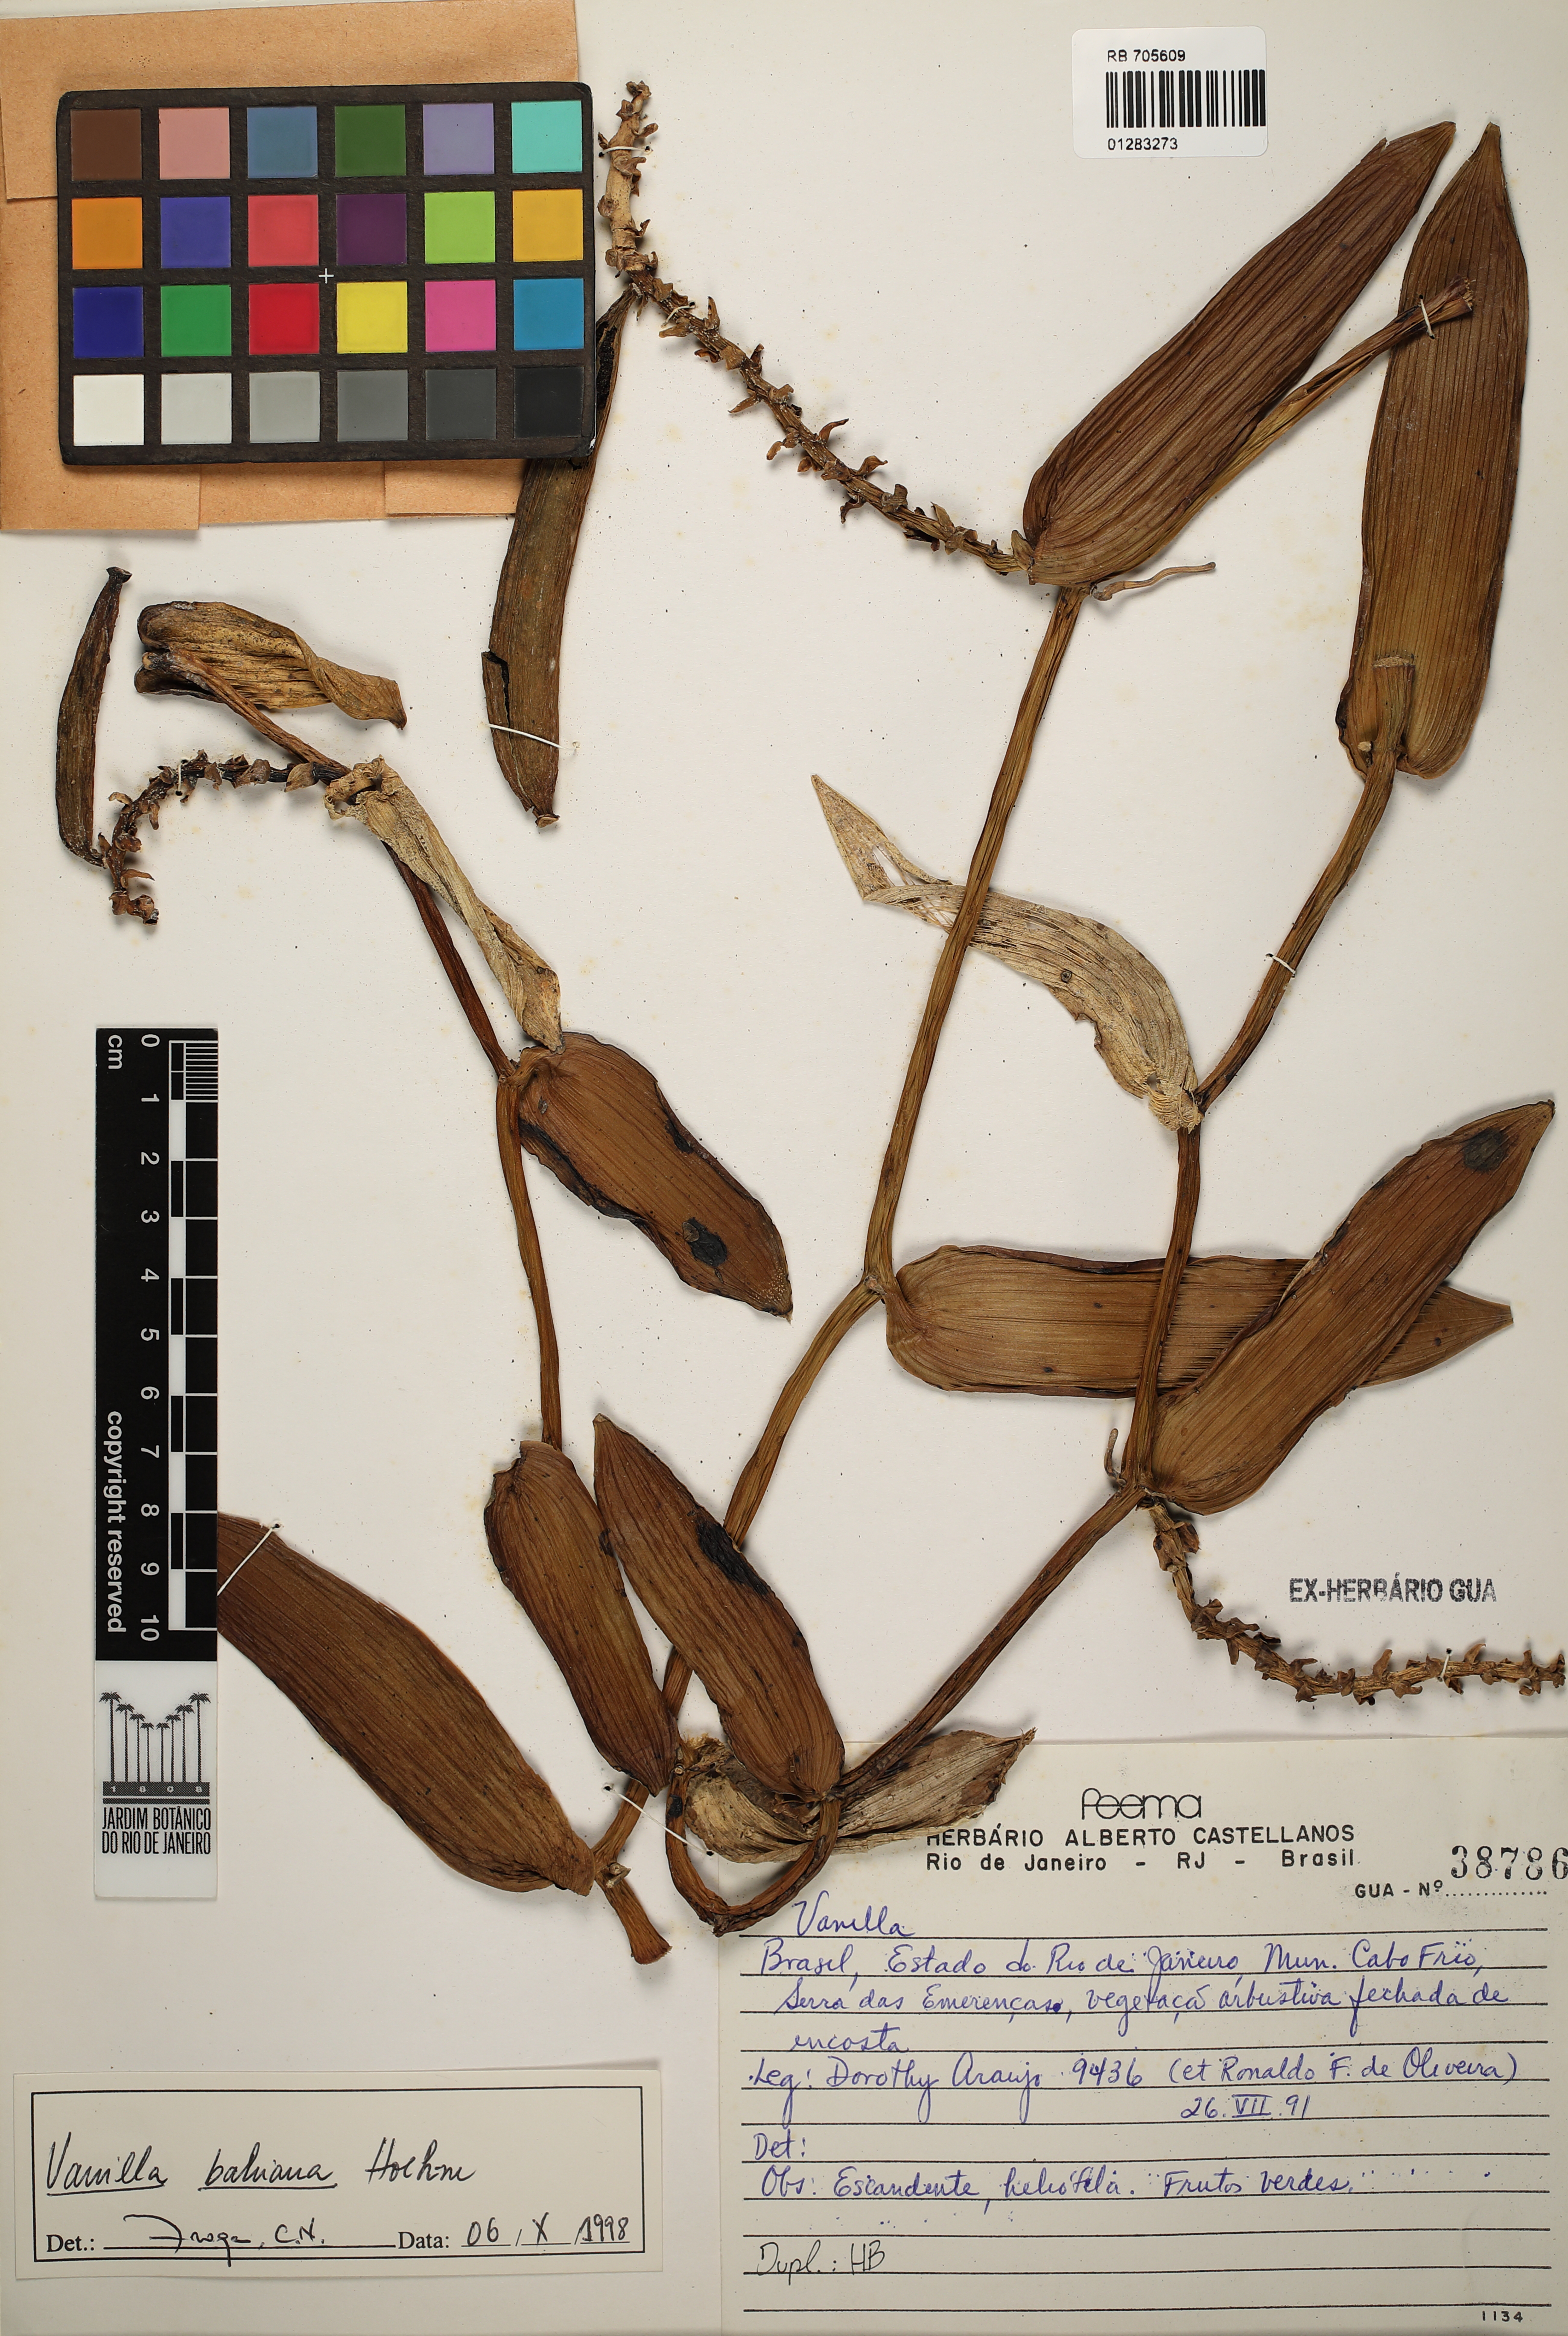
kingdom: Plantae
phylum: Tracheophyta
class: Liliopsida
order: Asparagales
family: Orchidaceae
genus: Vanilla
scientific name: Vanilla phaeantha
